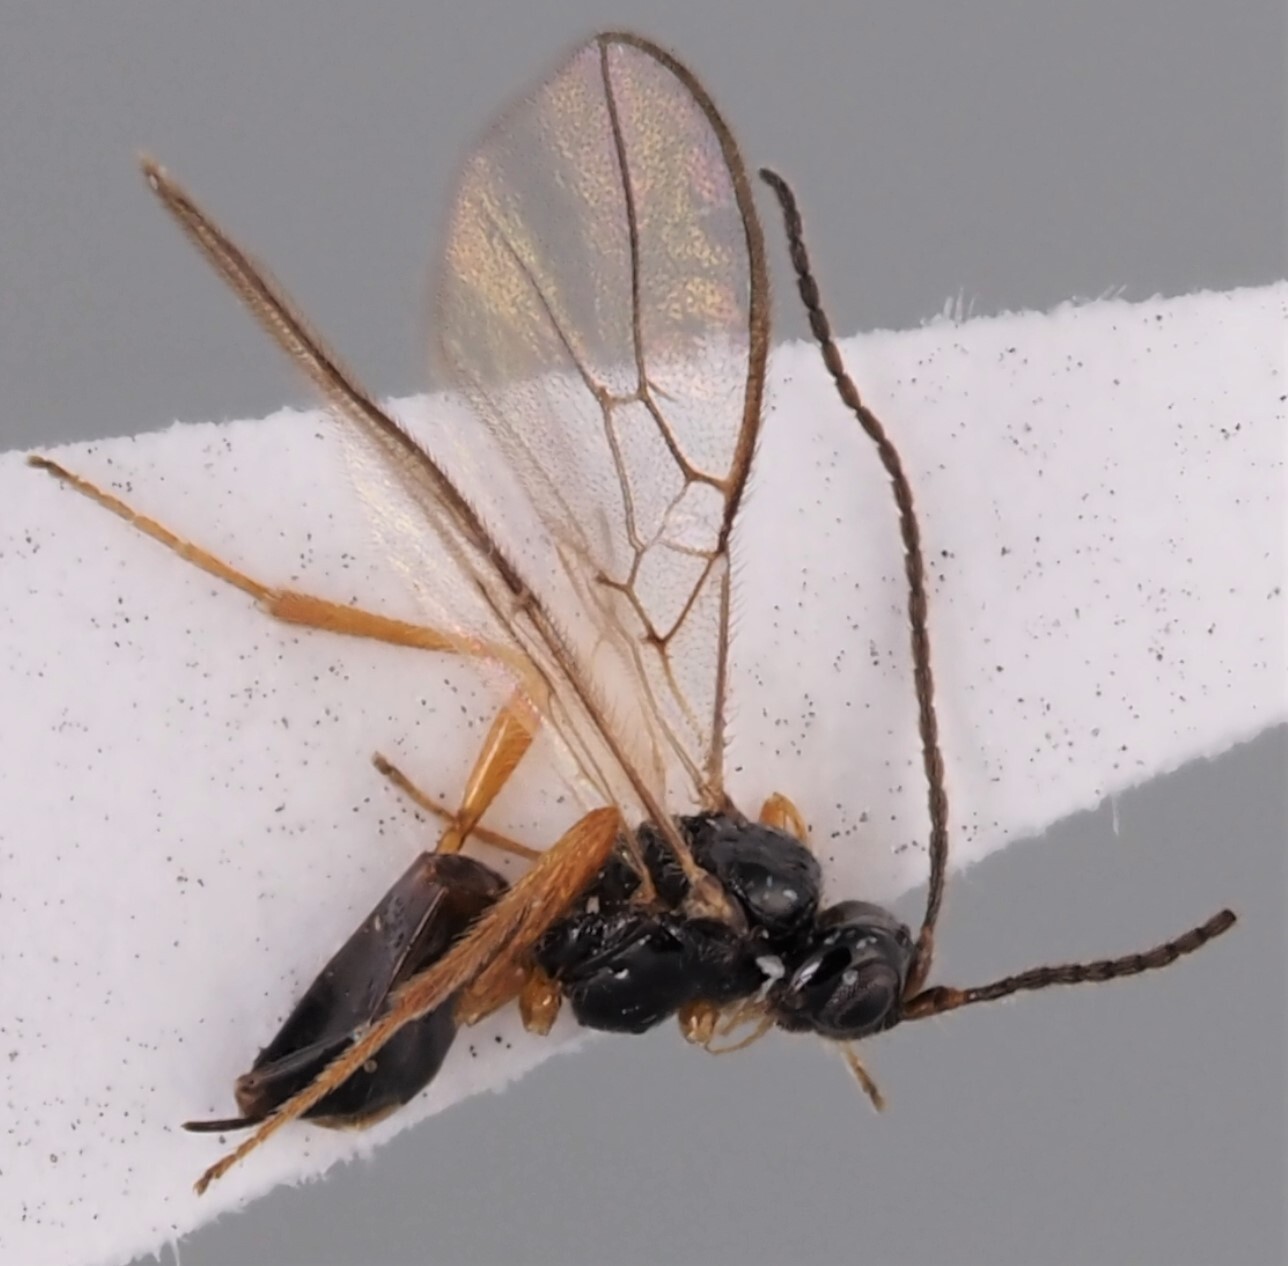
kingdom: Animalia
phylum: Arthropoda
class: Insecta
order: Hymenoptera
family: Braconidae
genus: Aspilota
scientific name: Aspilota praescutellaris
